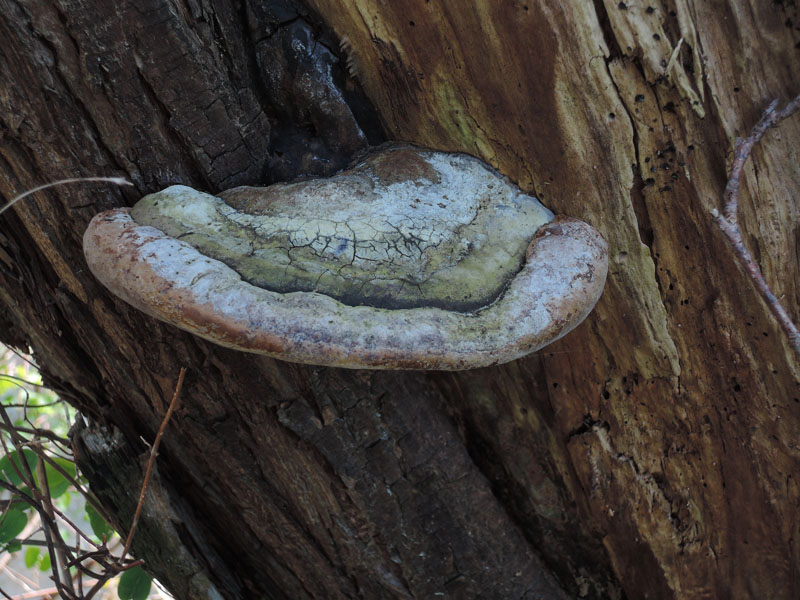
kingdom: Fungi
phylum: Basidiomycota
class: Agaricomycetes
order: Hymenochaetales
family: Hymenochaetaceae
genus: Phellinus
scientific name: Phellinus populicola
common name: poppel-ildporesvamp
